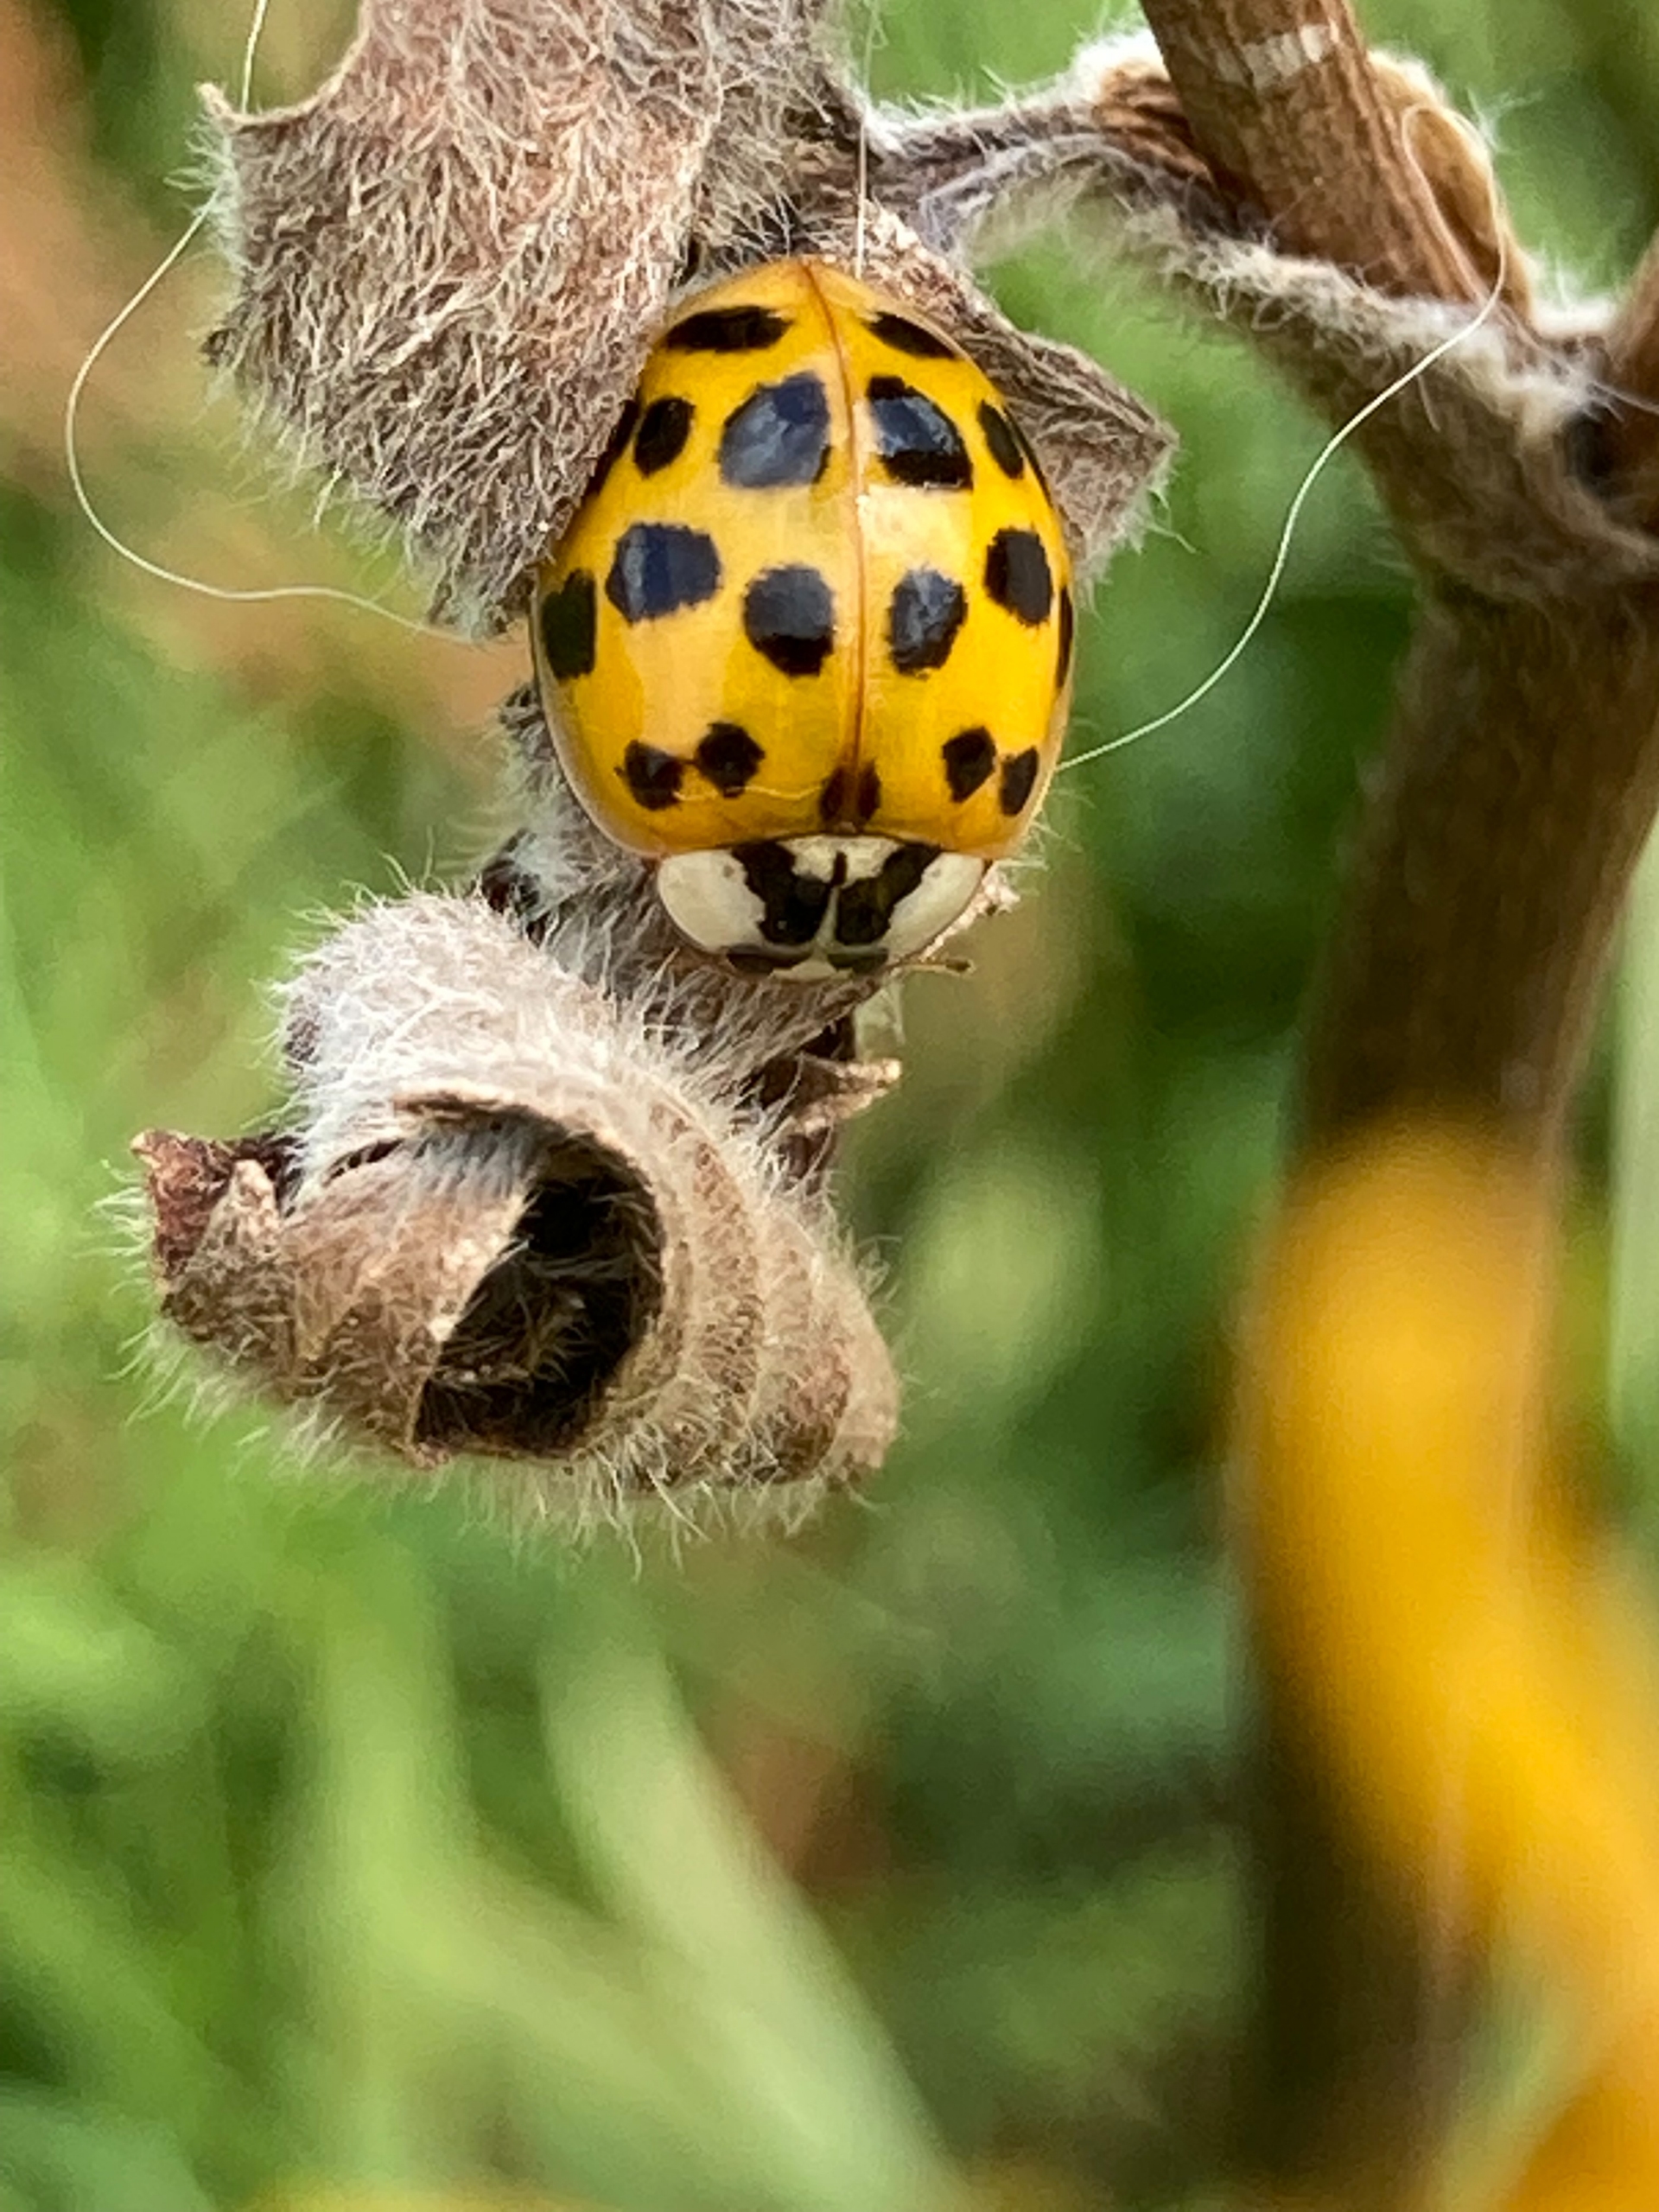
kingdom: Animalia
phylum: Arthropoda
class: Insecta
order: Coleoptera
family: Coccinellidae
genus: Harmonia
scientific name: Harmonia axyridis
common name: Harlekinmariehøne
